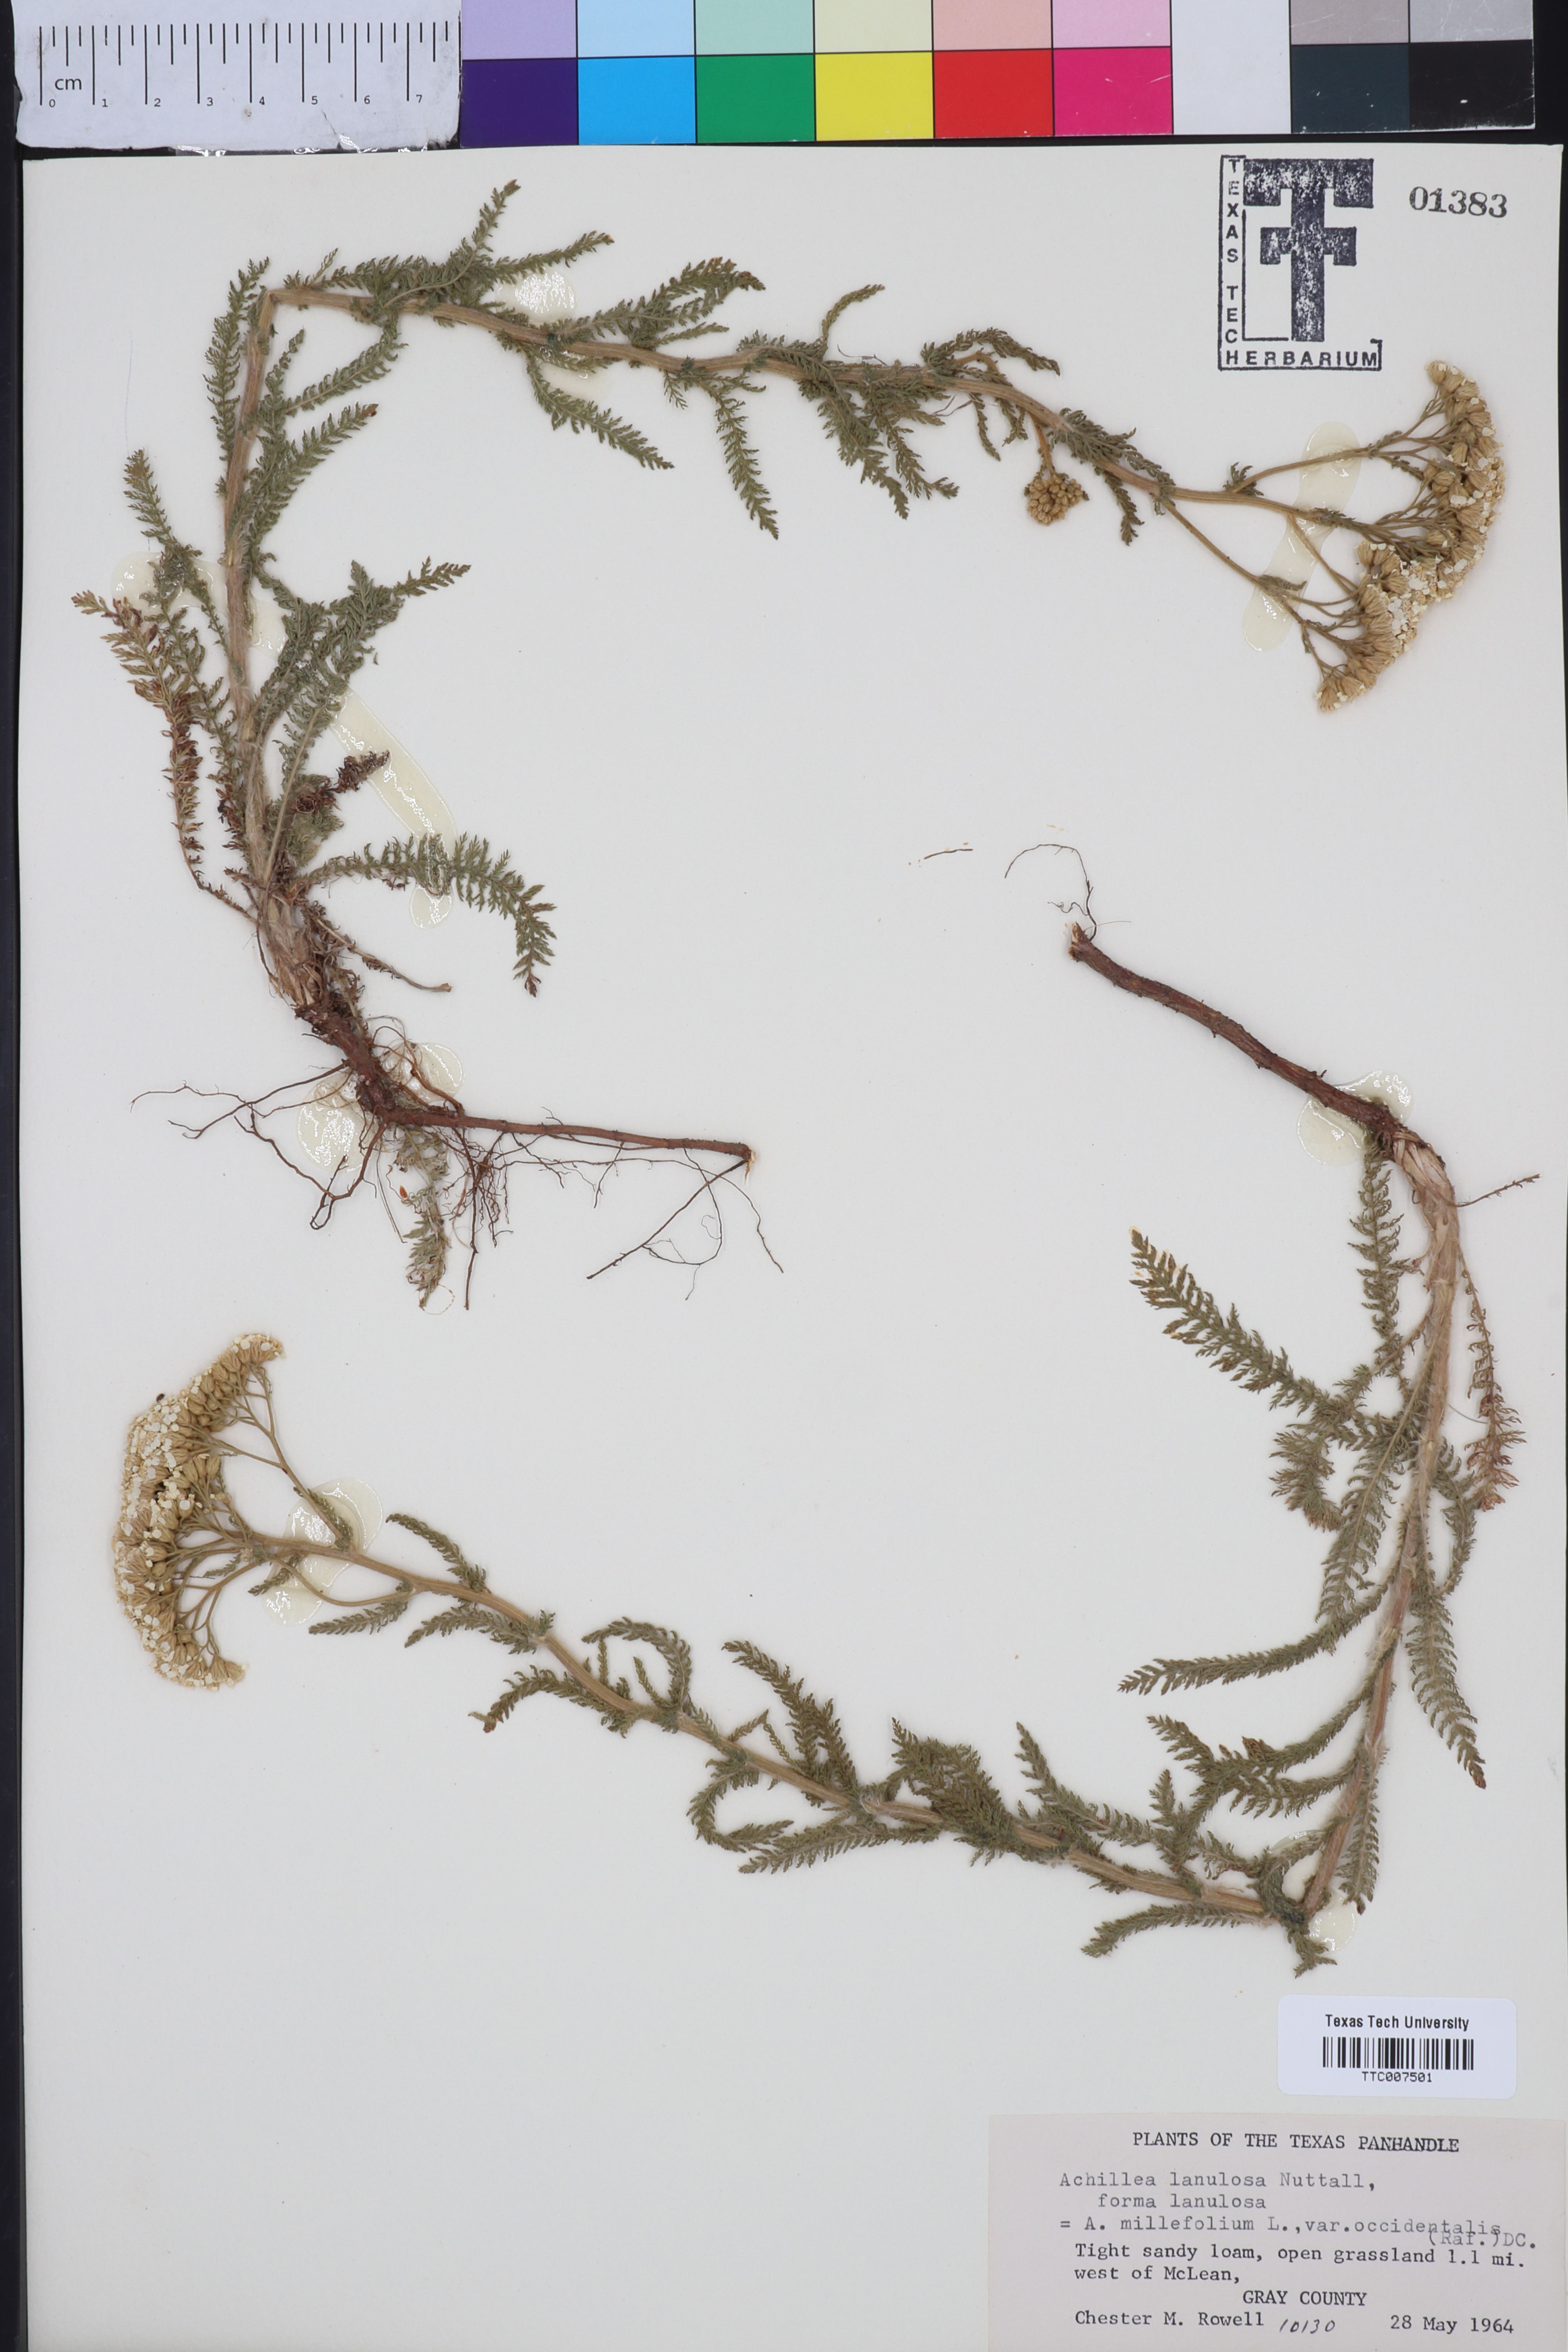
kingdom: Plantae
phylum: Tracheophyta
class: Magnoliopsida
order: Asterales
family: Asteraceae
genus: Achillea
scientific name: Achillea millefolium
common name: Yarrow
